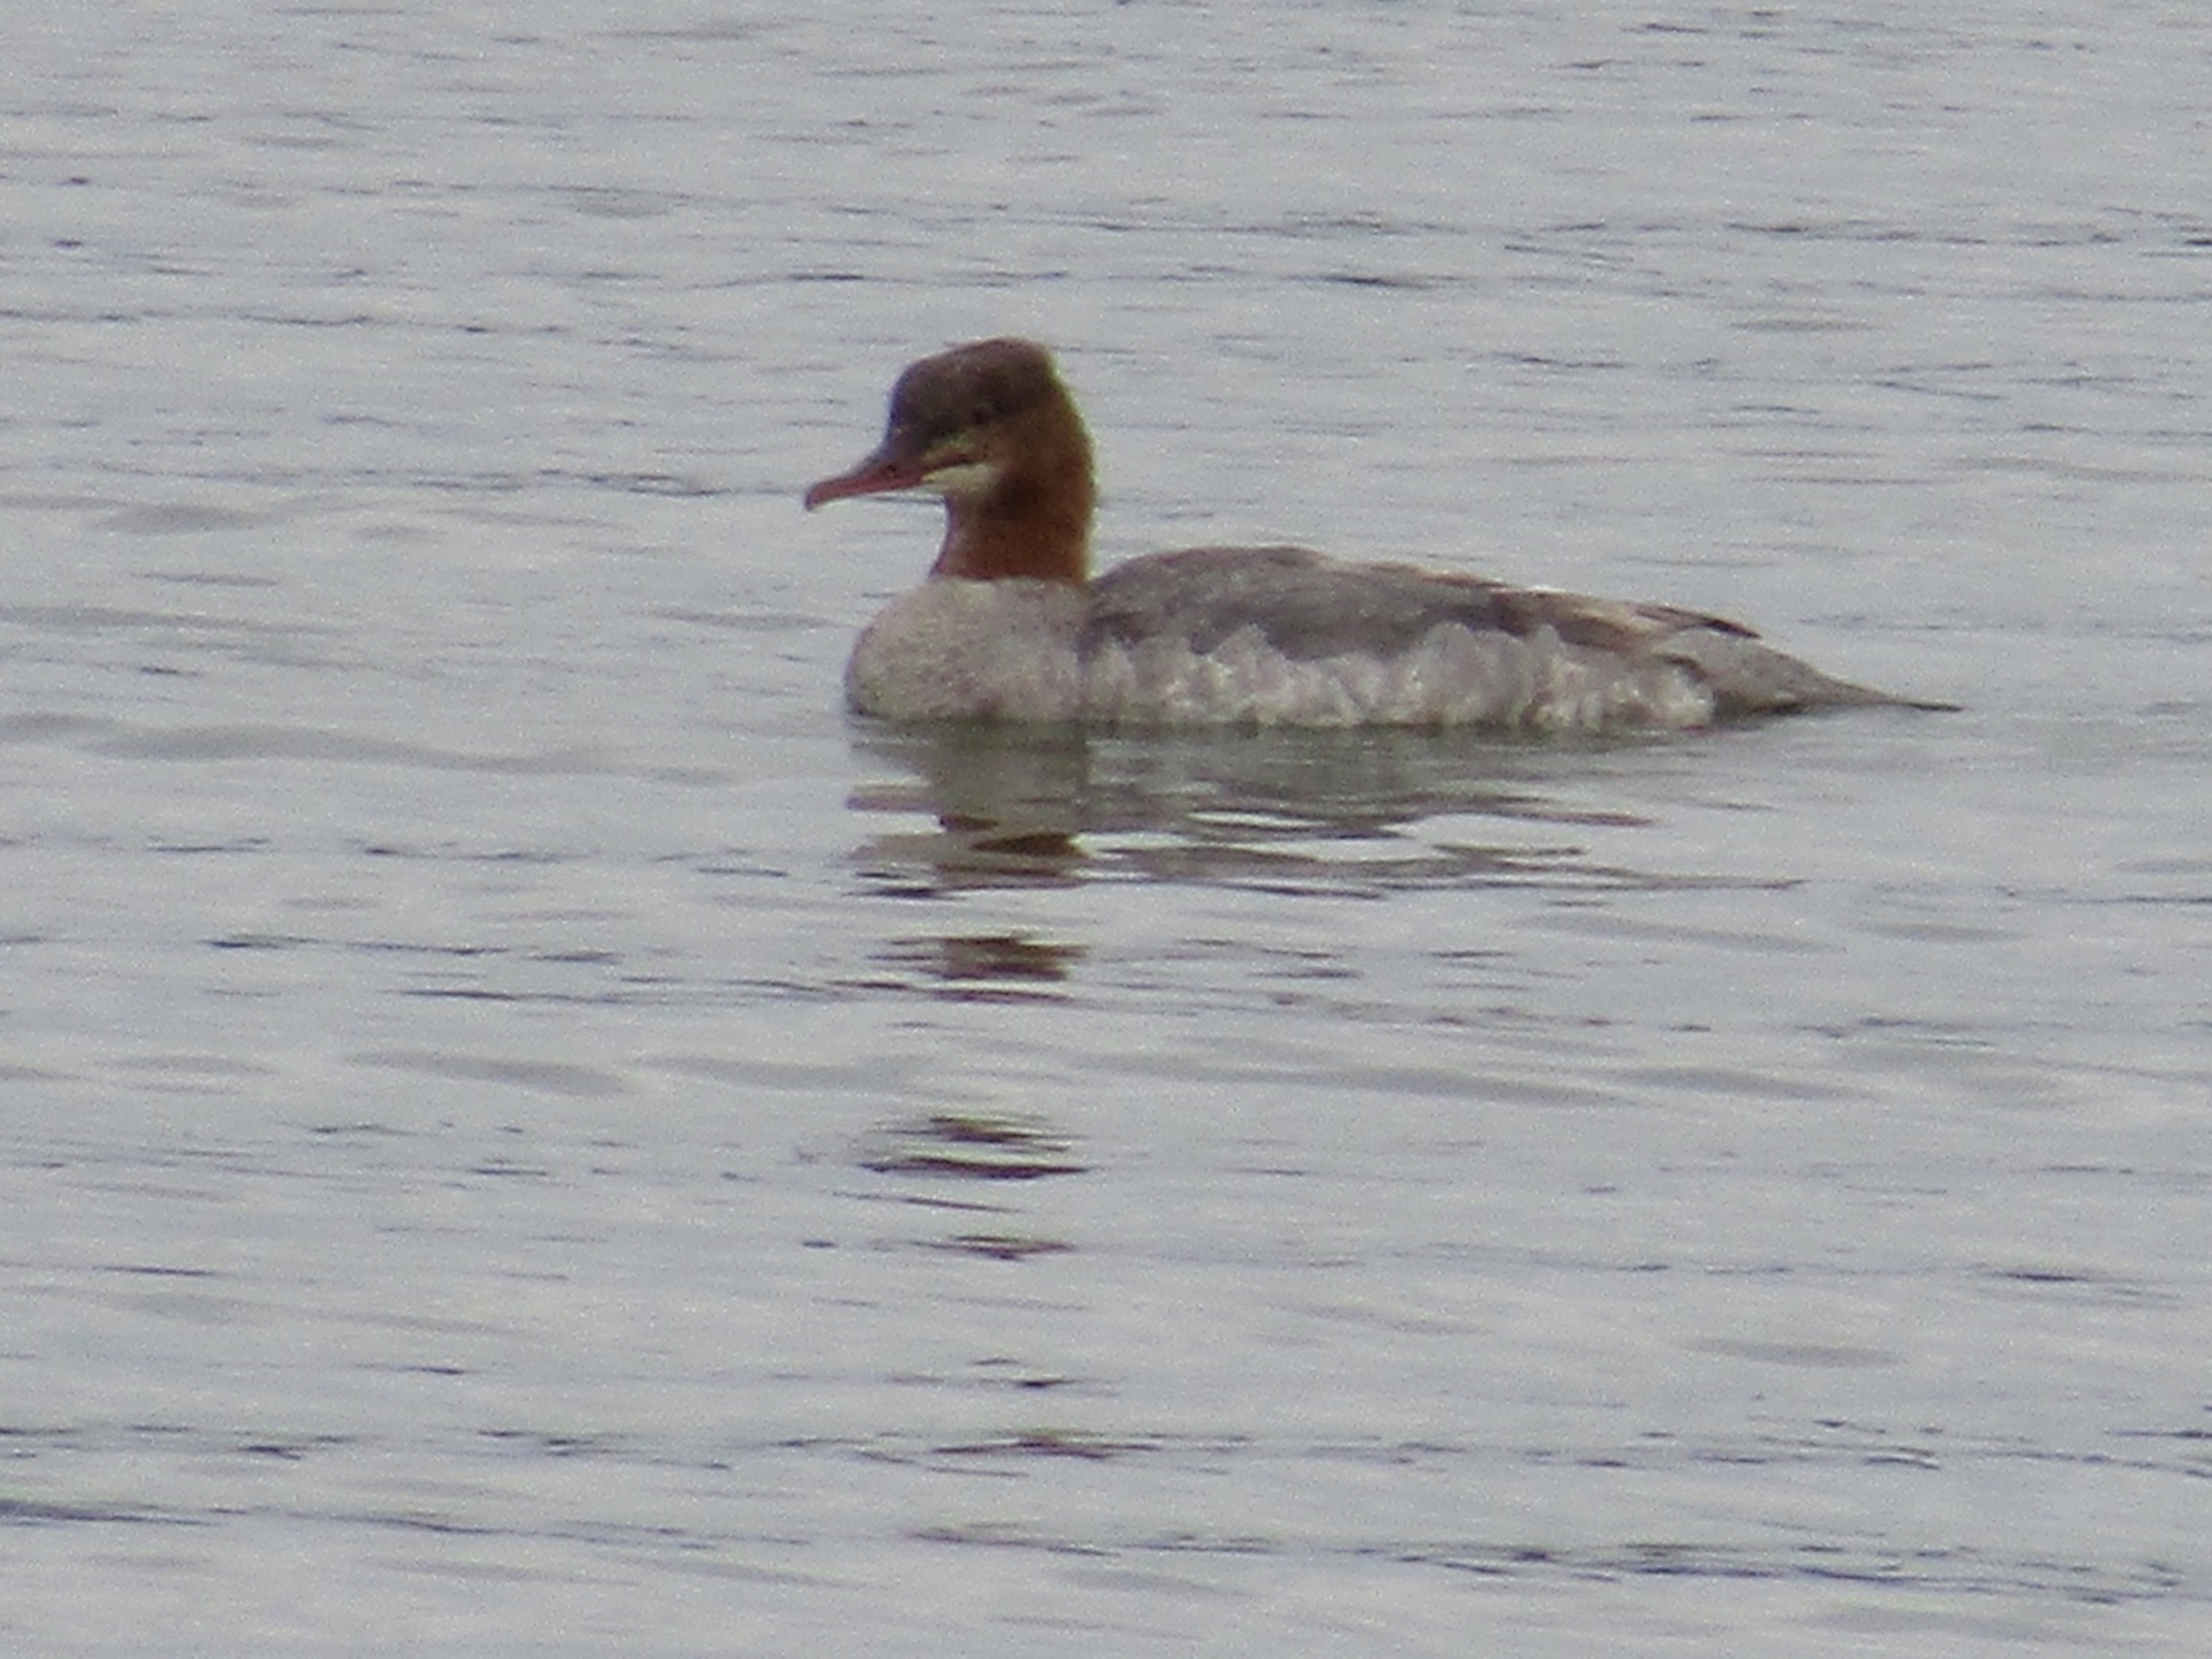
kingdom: Animalia
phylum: Chordata
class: Aves
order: Anseriformes
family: Anatidae
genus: Mergus
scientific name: Mergus merganser
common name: Stor skallesluger
